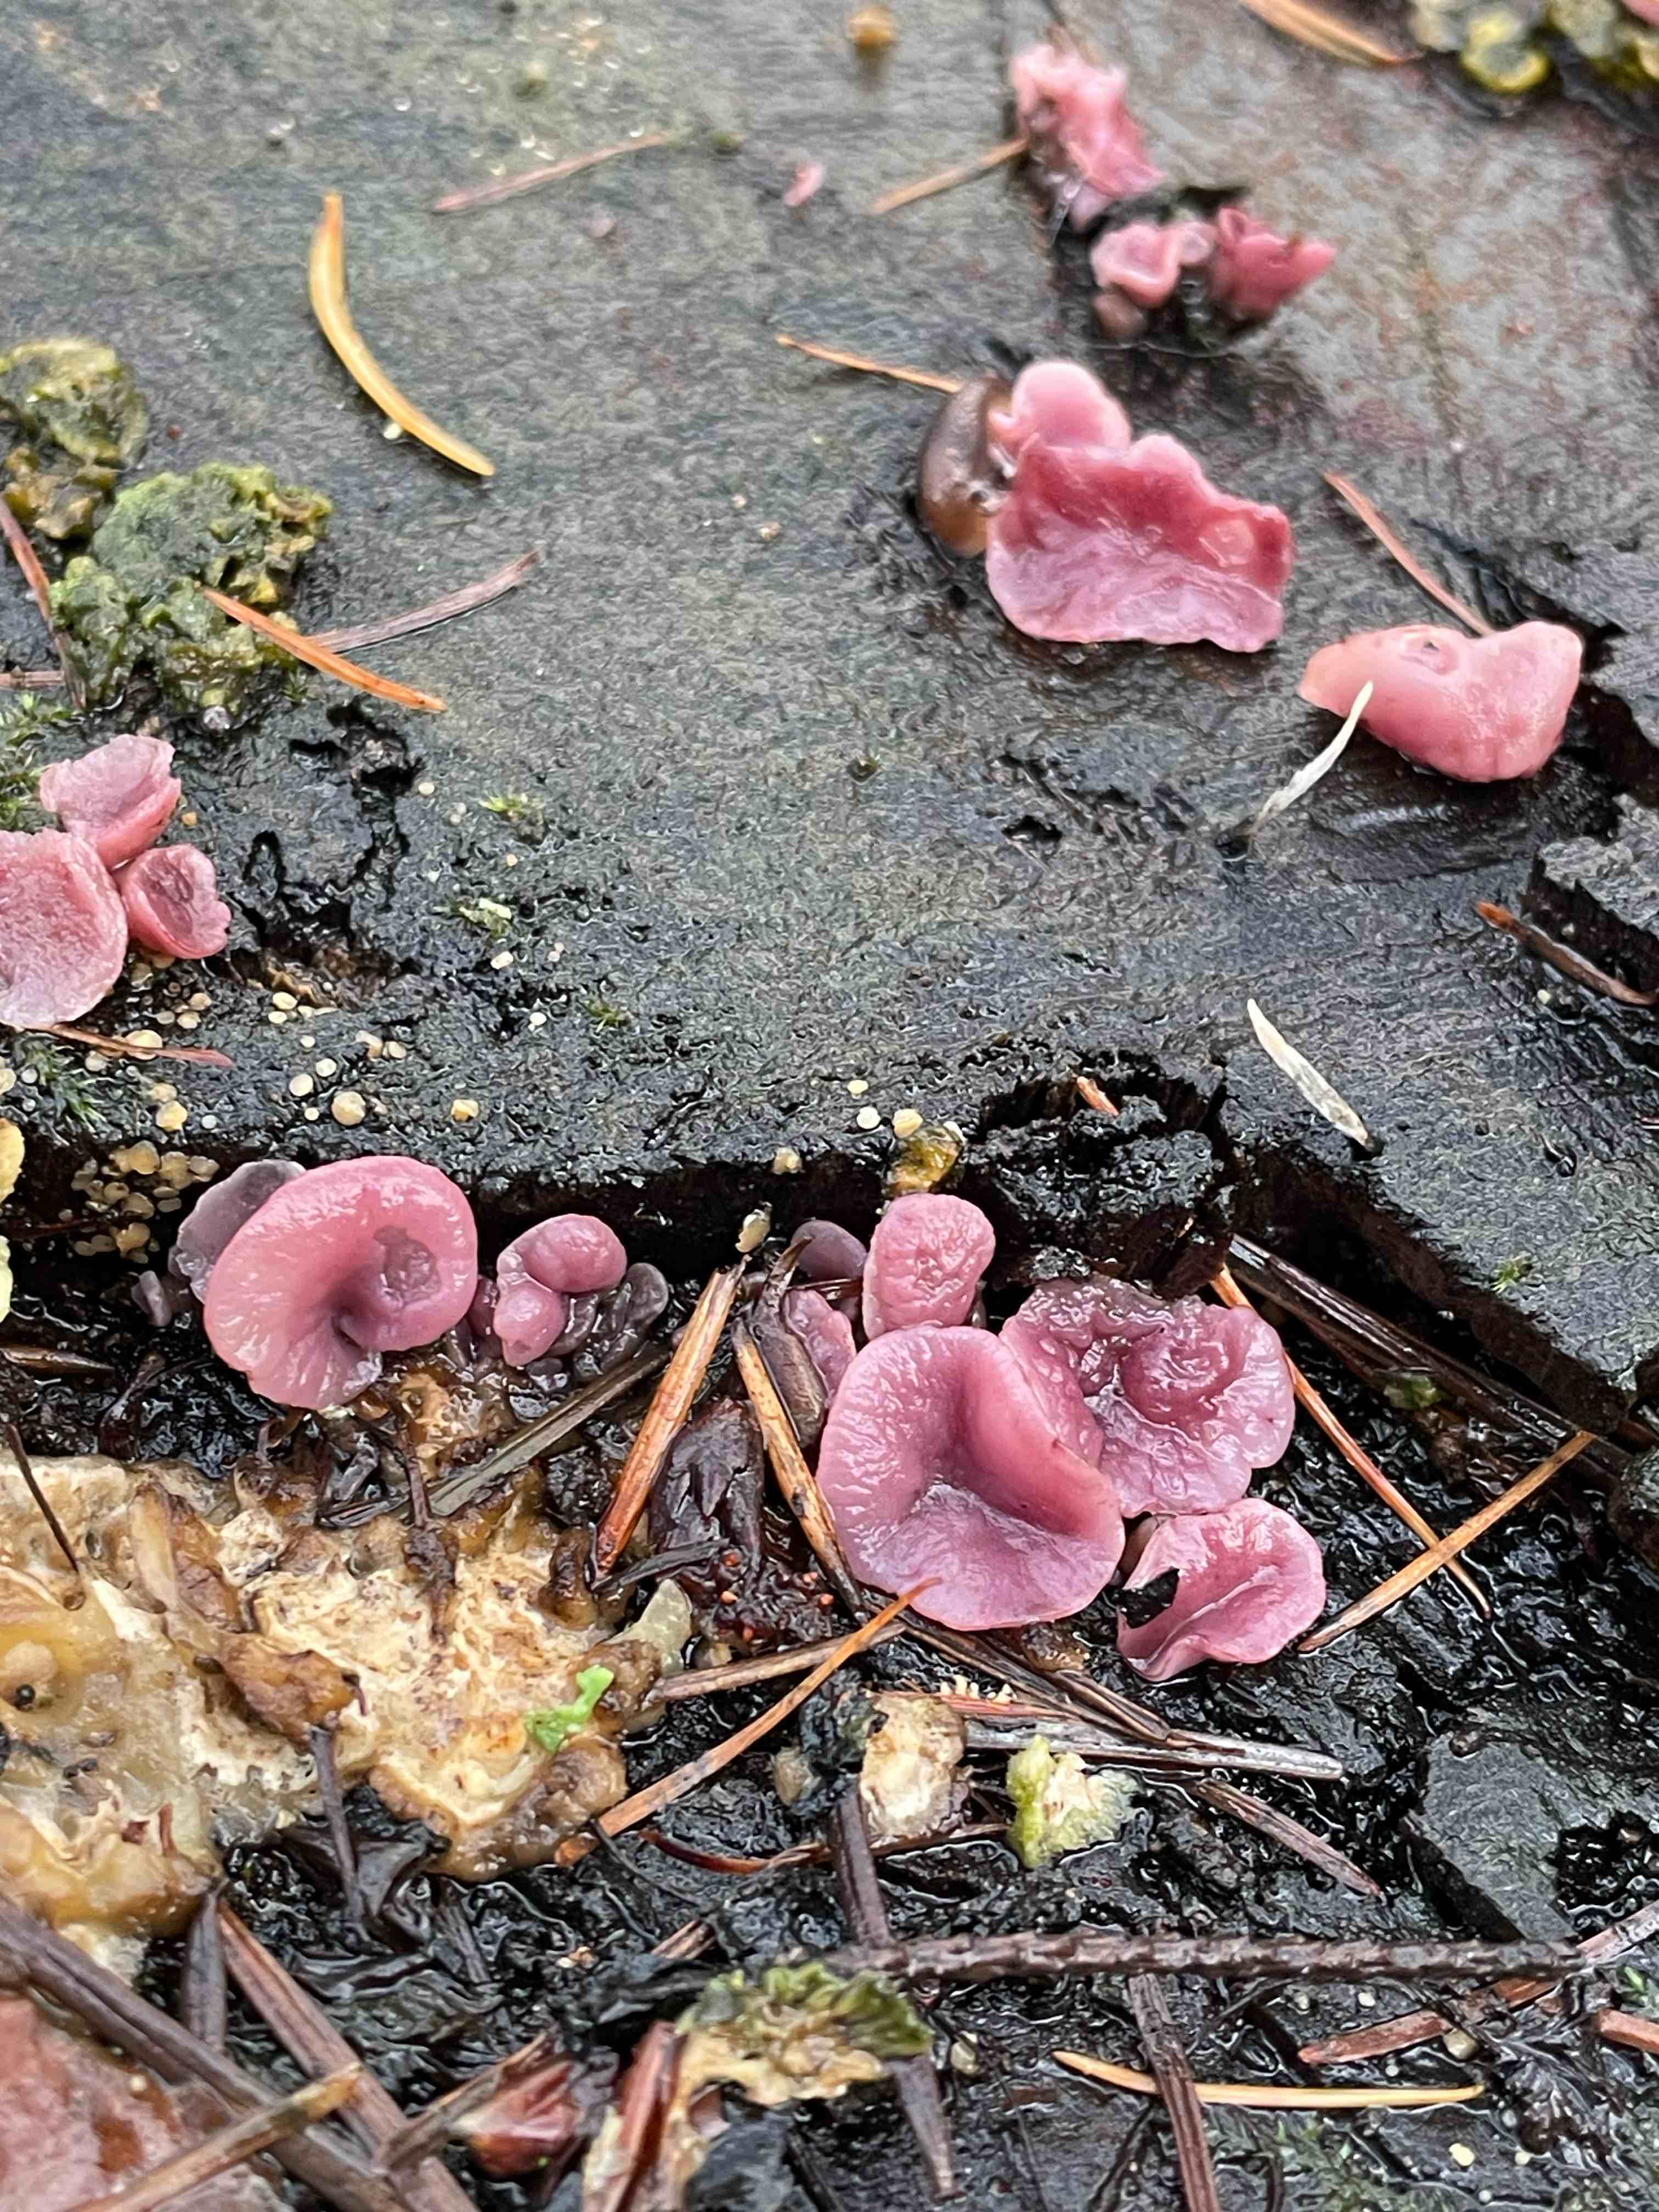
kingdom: Fungi
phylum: Ascomycota
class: Leotiomycetes
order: Helotiales
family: Gelatinodiscaceae
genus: Ascocoryne
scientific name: Ascocoryne cylichnium
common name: stor sejskive
